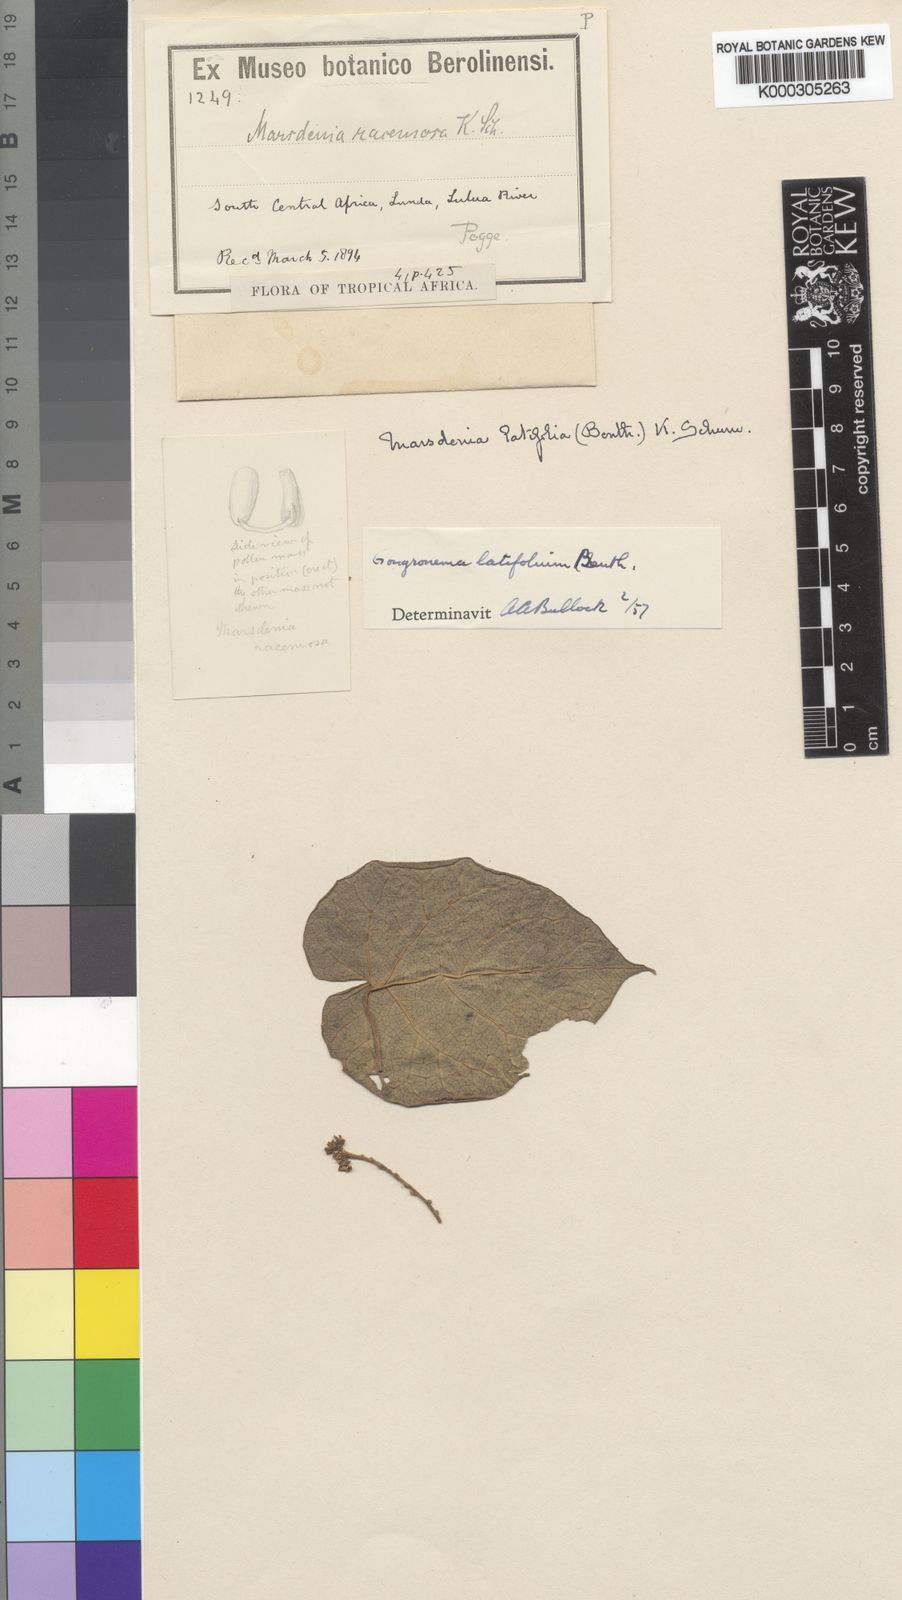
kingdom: Plantae
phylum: Tracheophyta
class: Magnoliopsida
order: Gentianales
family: Apocynaceae
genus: Gongronemopsis
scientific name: Gongronemopsis latifolia
